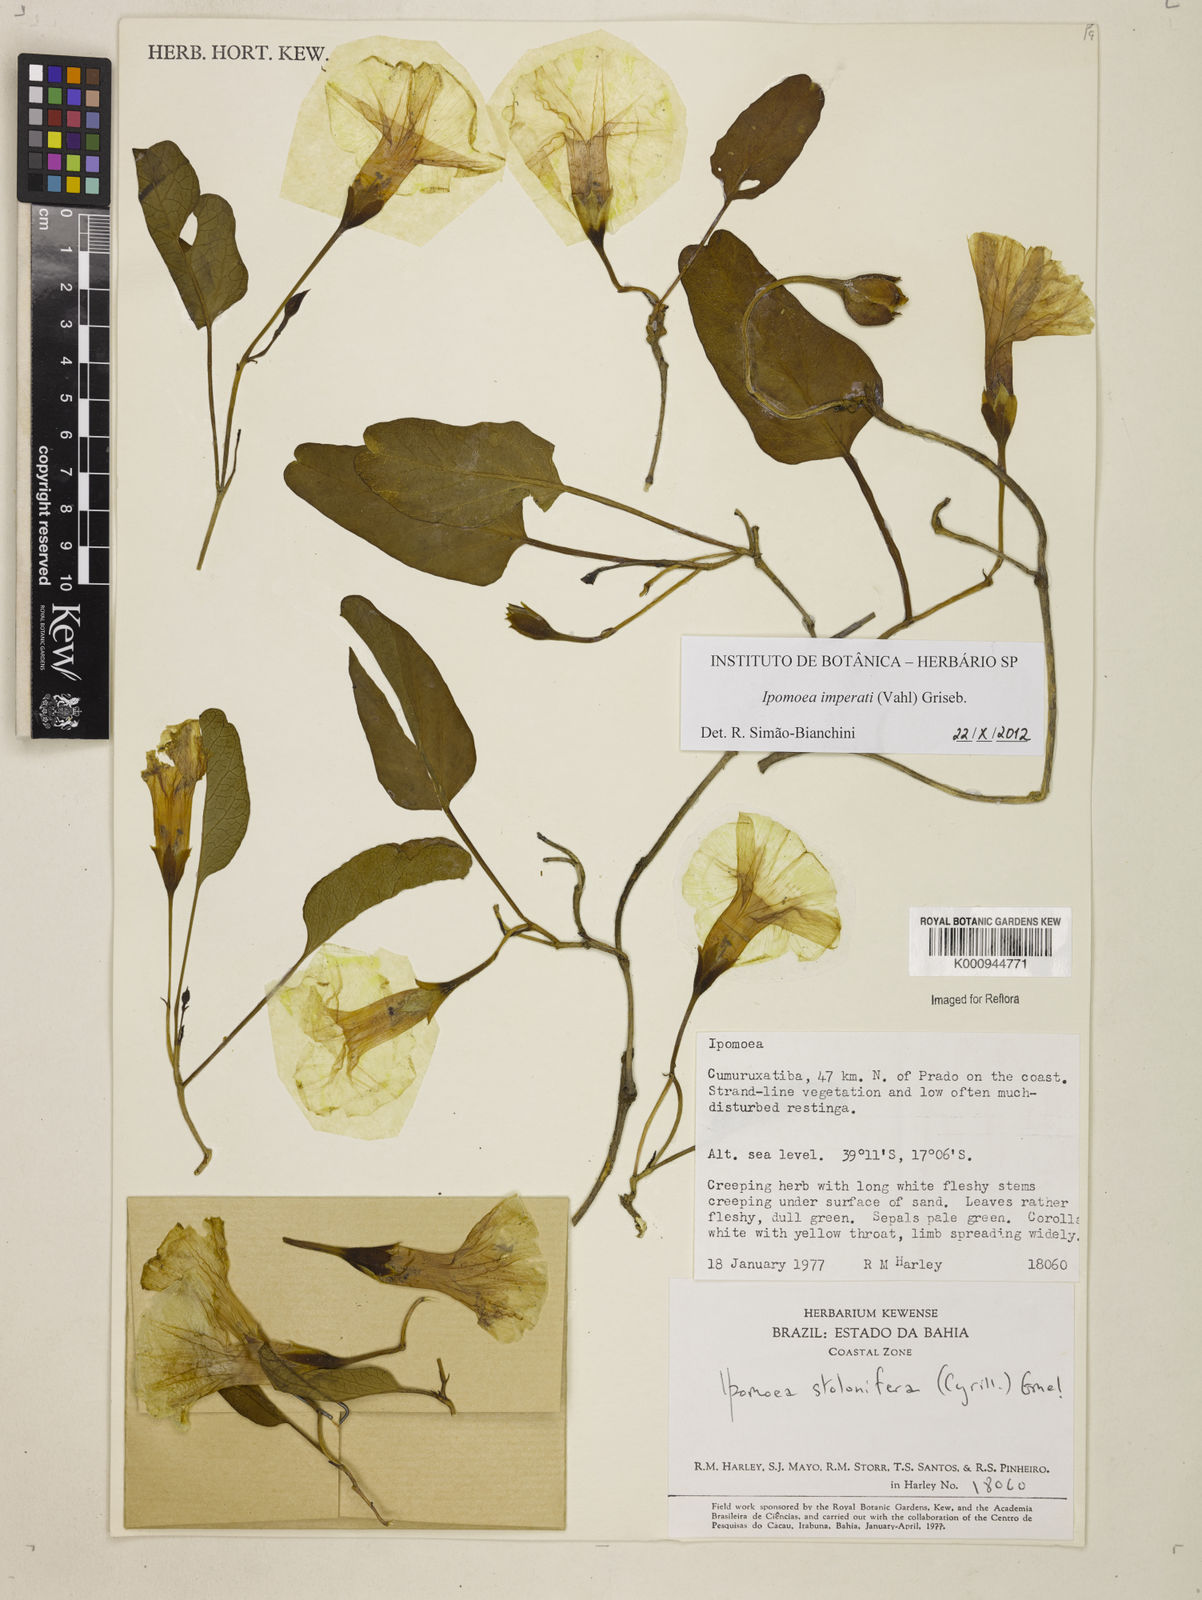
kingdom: Plantae
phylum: Tracheophyta
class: Magnoliopsida
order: Solanales
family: Convolvulaceae
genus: Ipomoea
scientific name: Ipomoea
